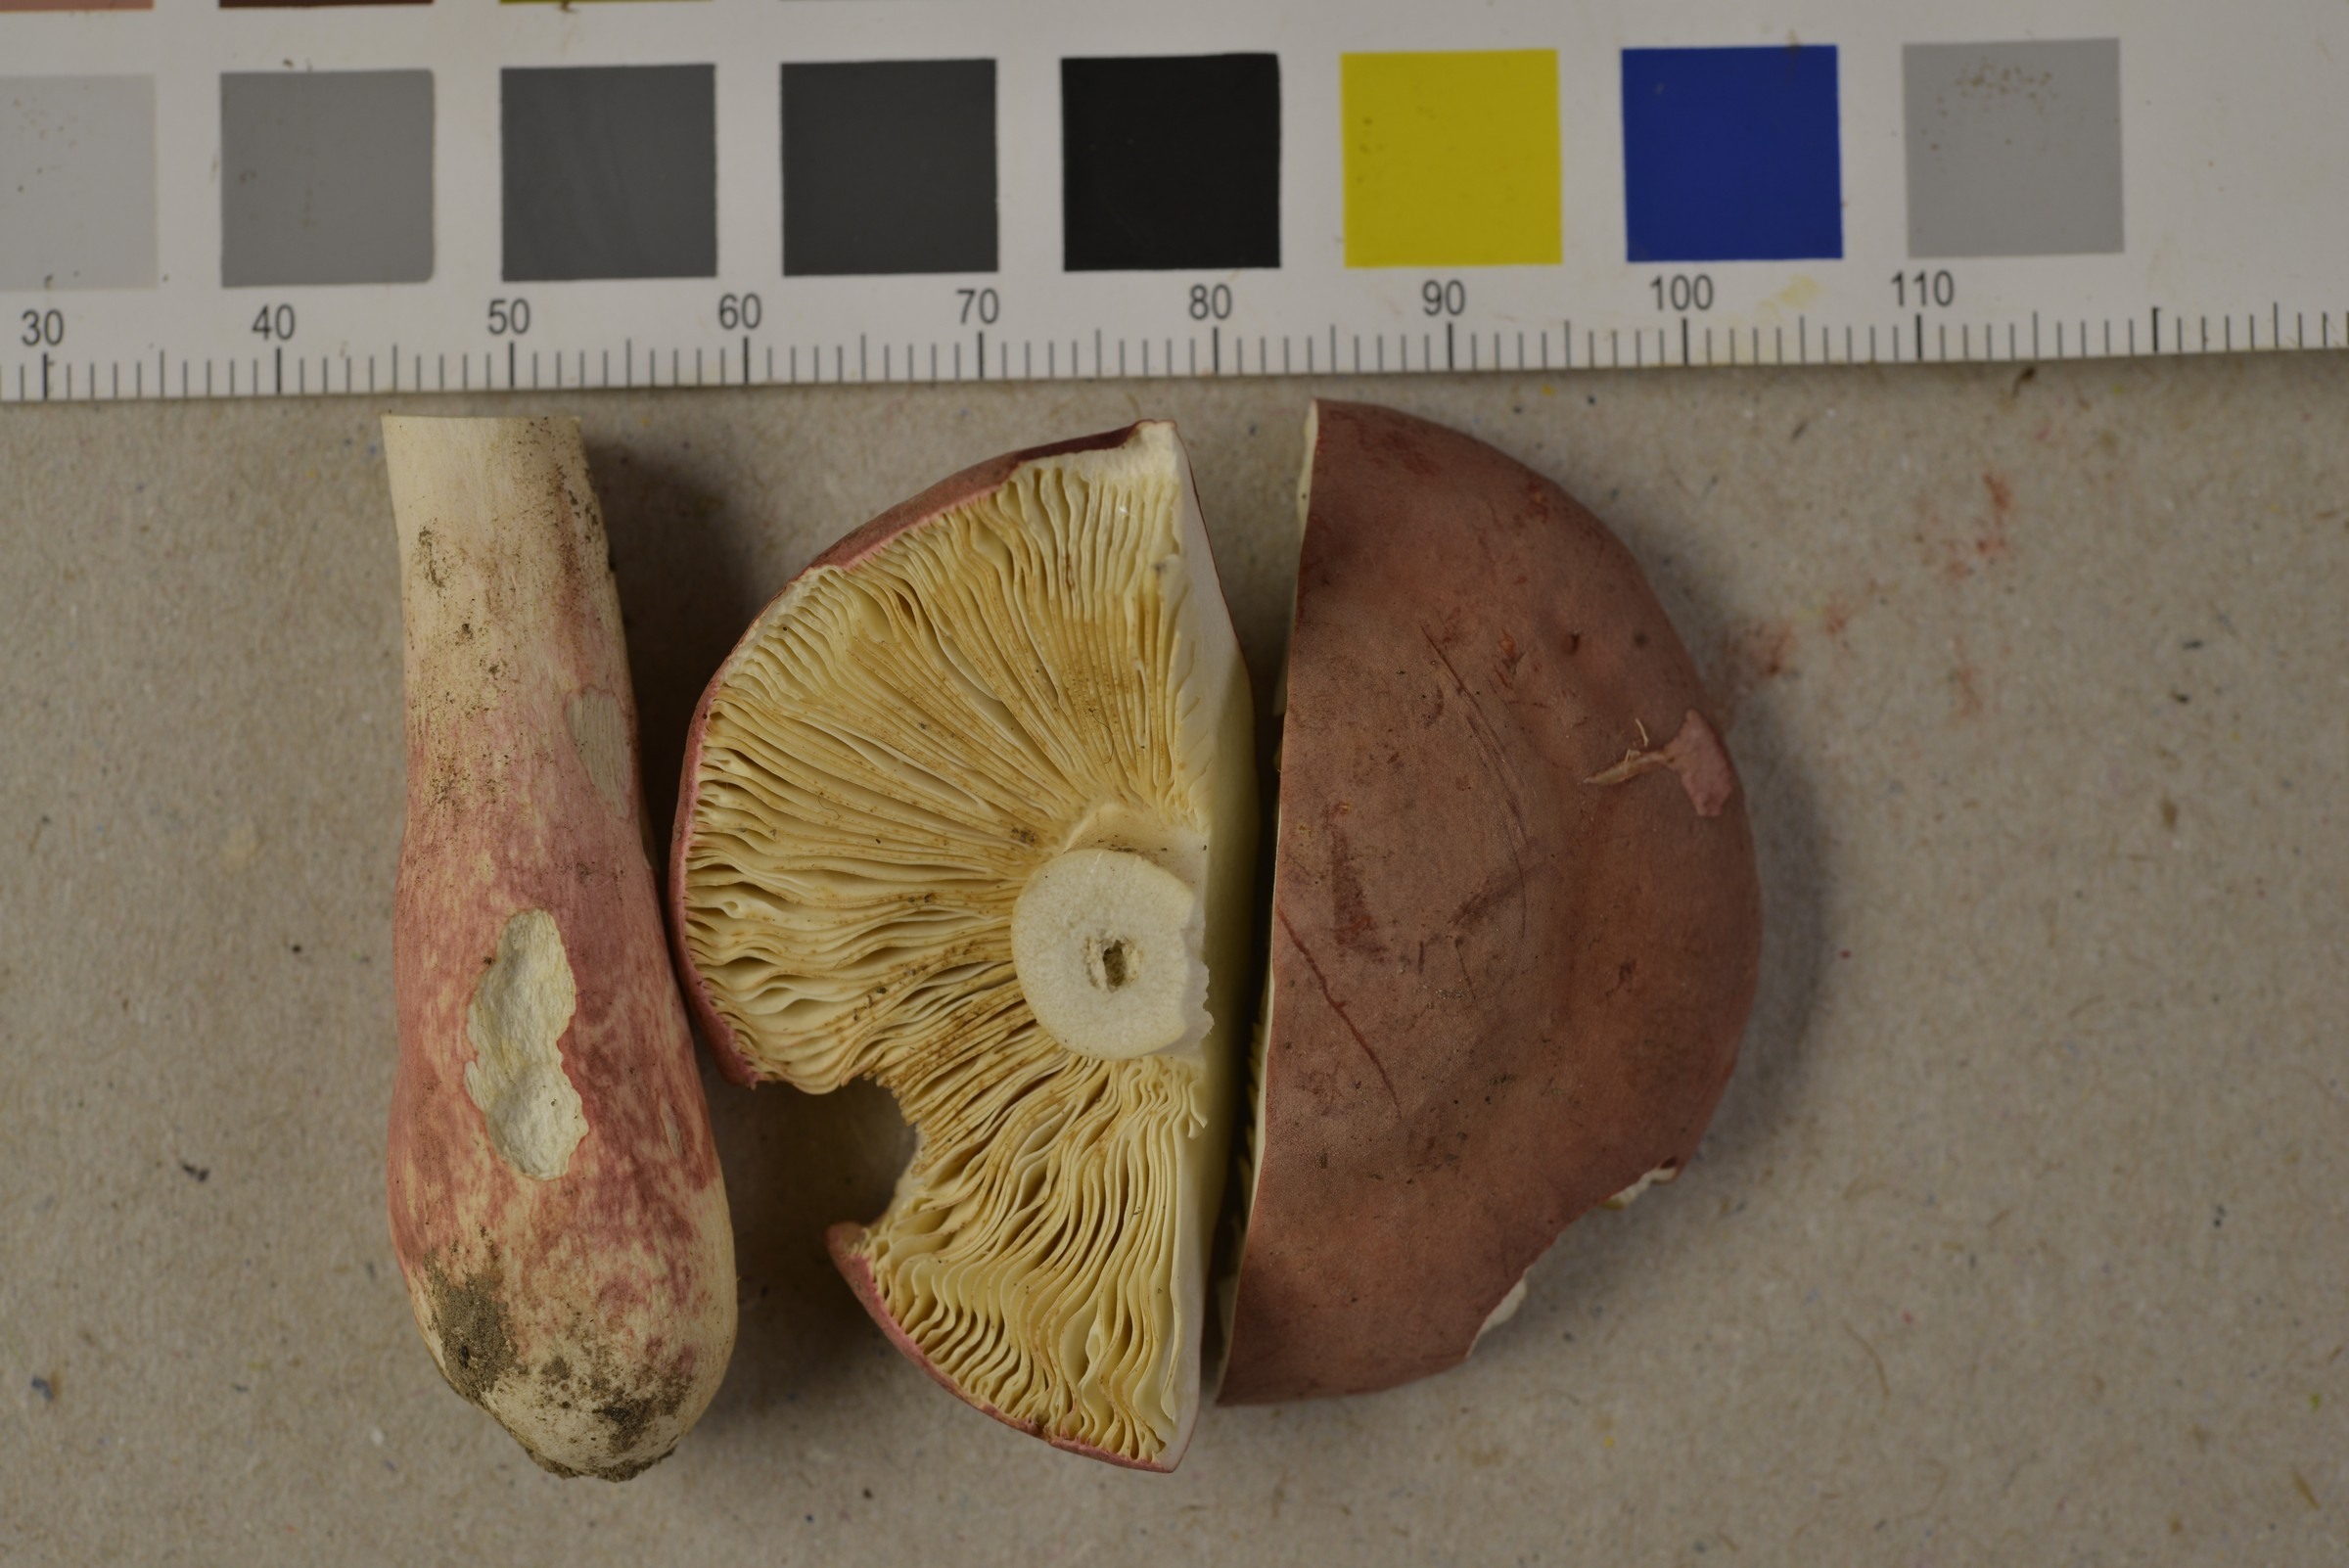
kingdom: Fungi
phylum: Basidiomycota
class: Agaricomycetes
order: Russulales
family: Russulaceae
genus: Russula
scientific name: Russula roseipes
